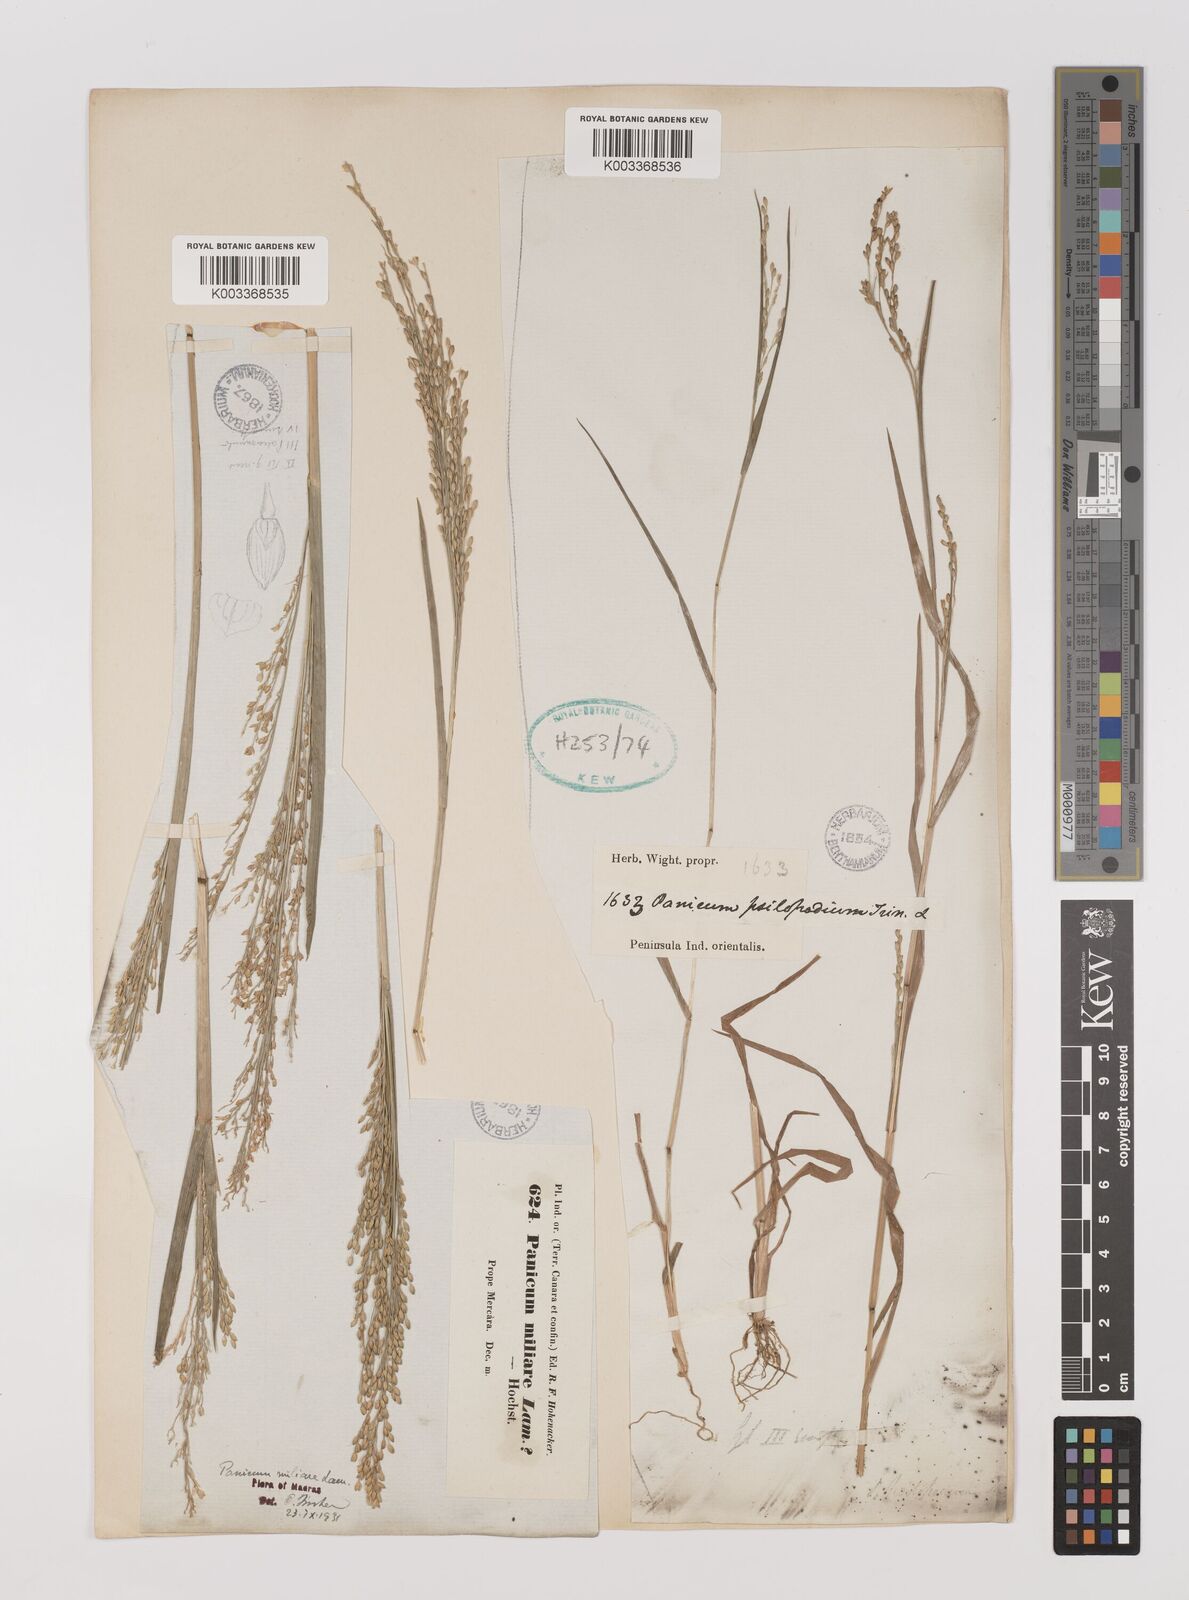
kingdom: Plantae
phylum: Tracheophyta
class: Liliopsida
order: Poales
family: Poaceae
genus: Panicum
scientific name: Panicum sumatrense
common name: Little millet
